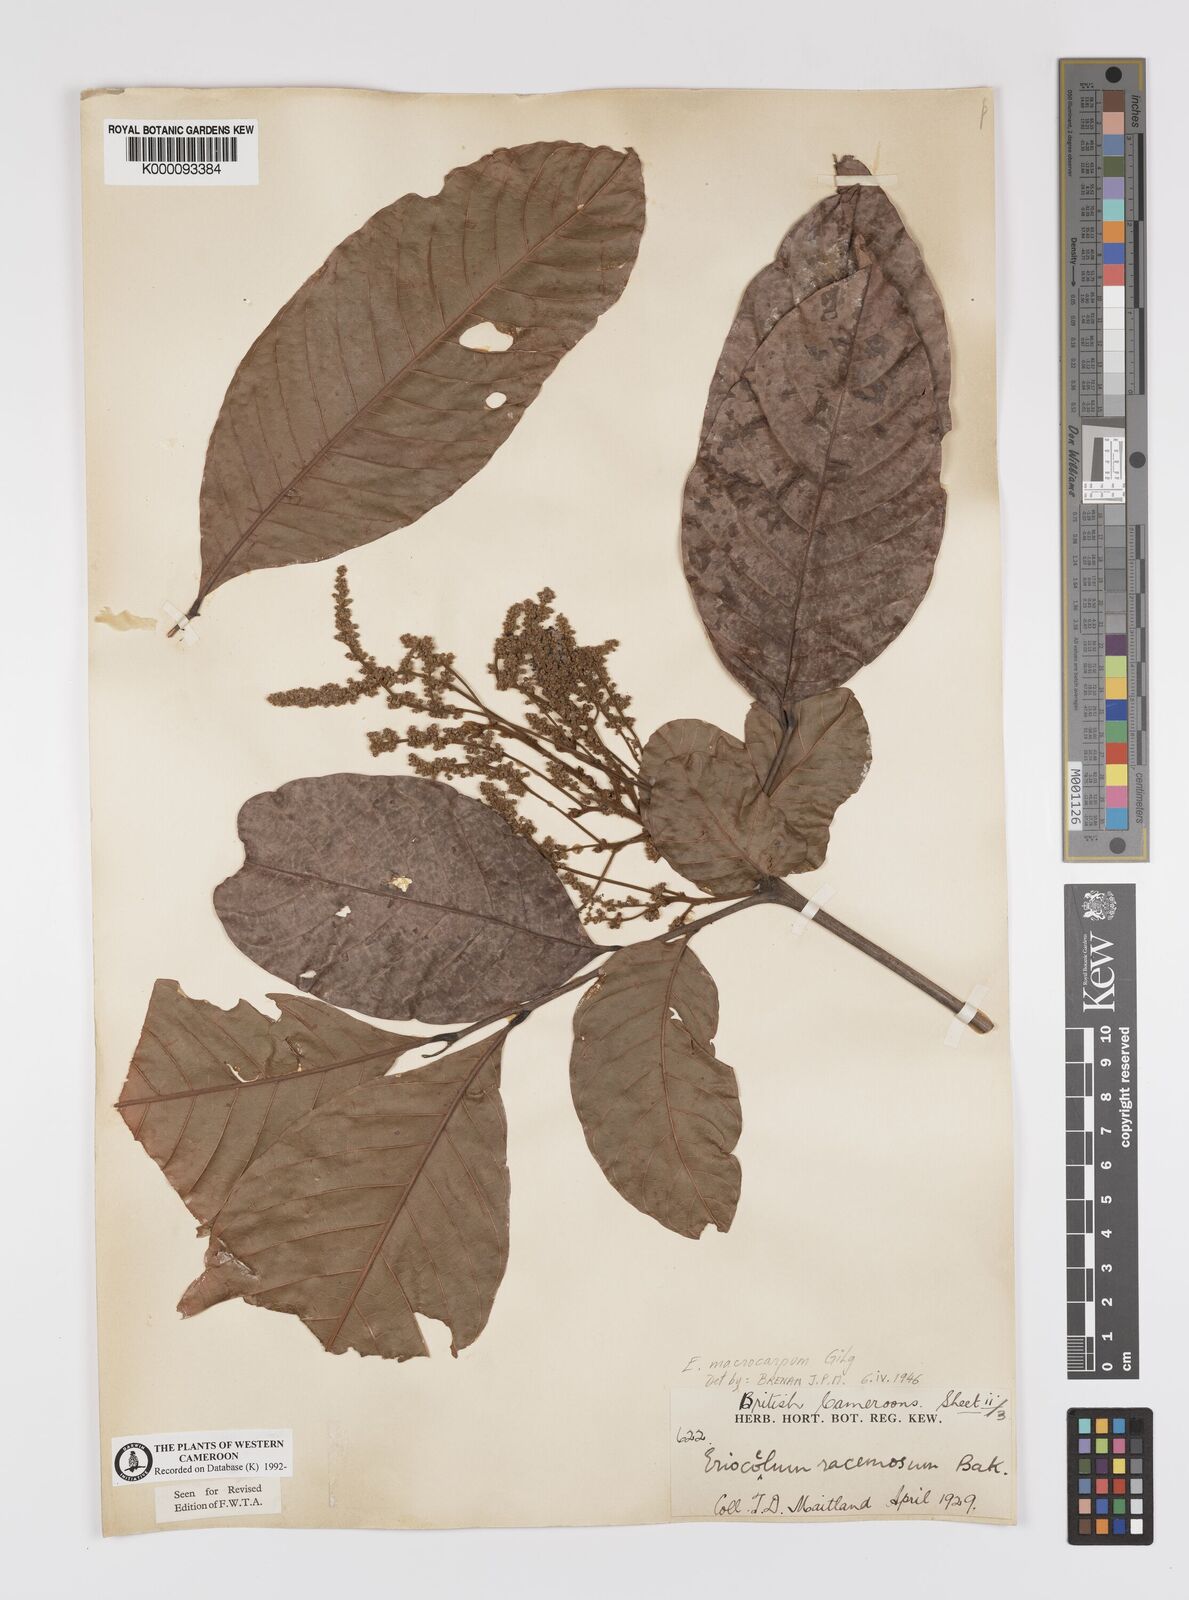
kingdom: Plantae
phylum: Tracheophyta
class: Magnoliopsida
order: Sapindales
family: Sapindaceae
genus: Eriocoelum
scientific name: Eriocoelum
